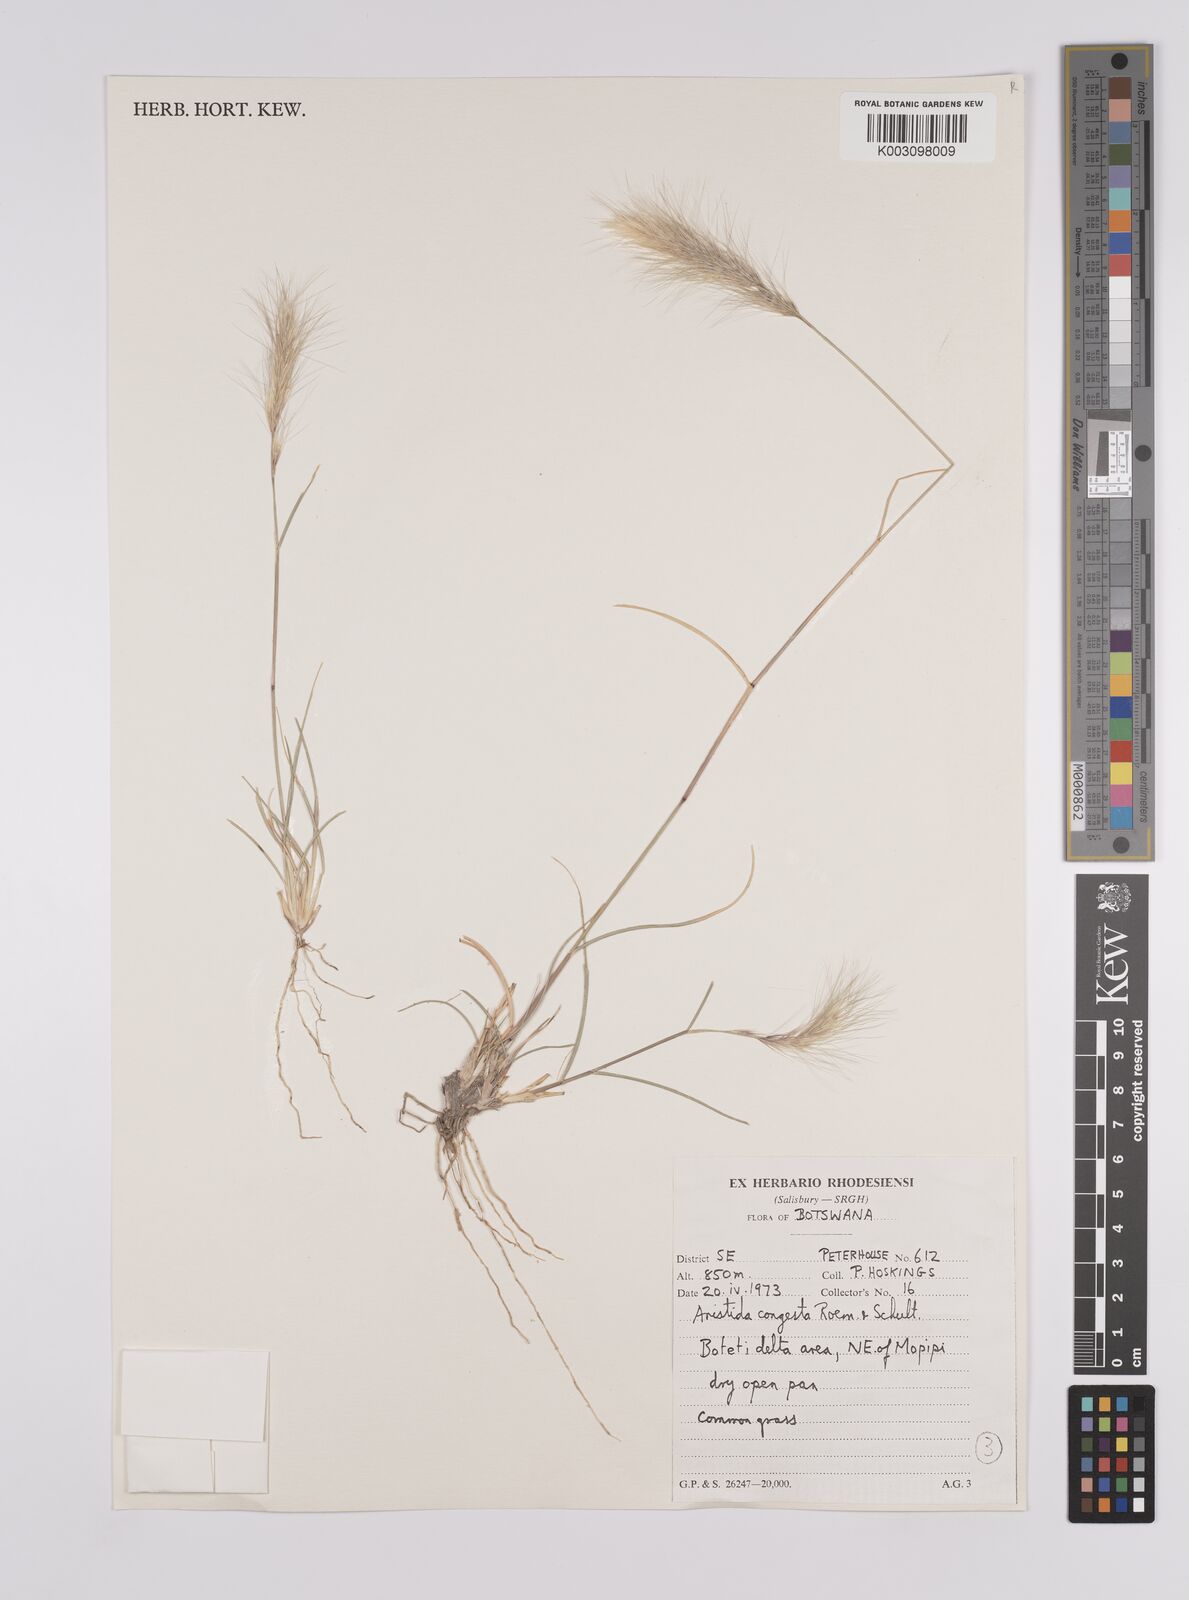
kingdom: Plantae
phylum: Tracheophyta
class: Liliopsida
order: Poales
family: Poaceae
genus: Aristida
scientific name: Aristida congesta
